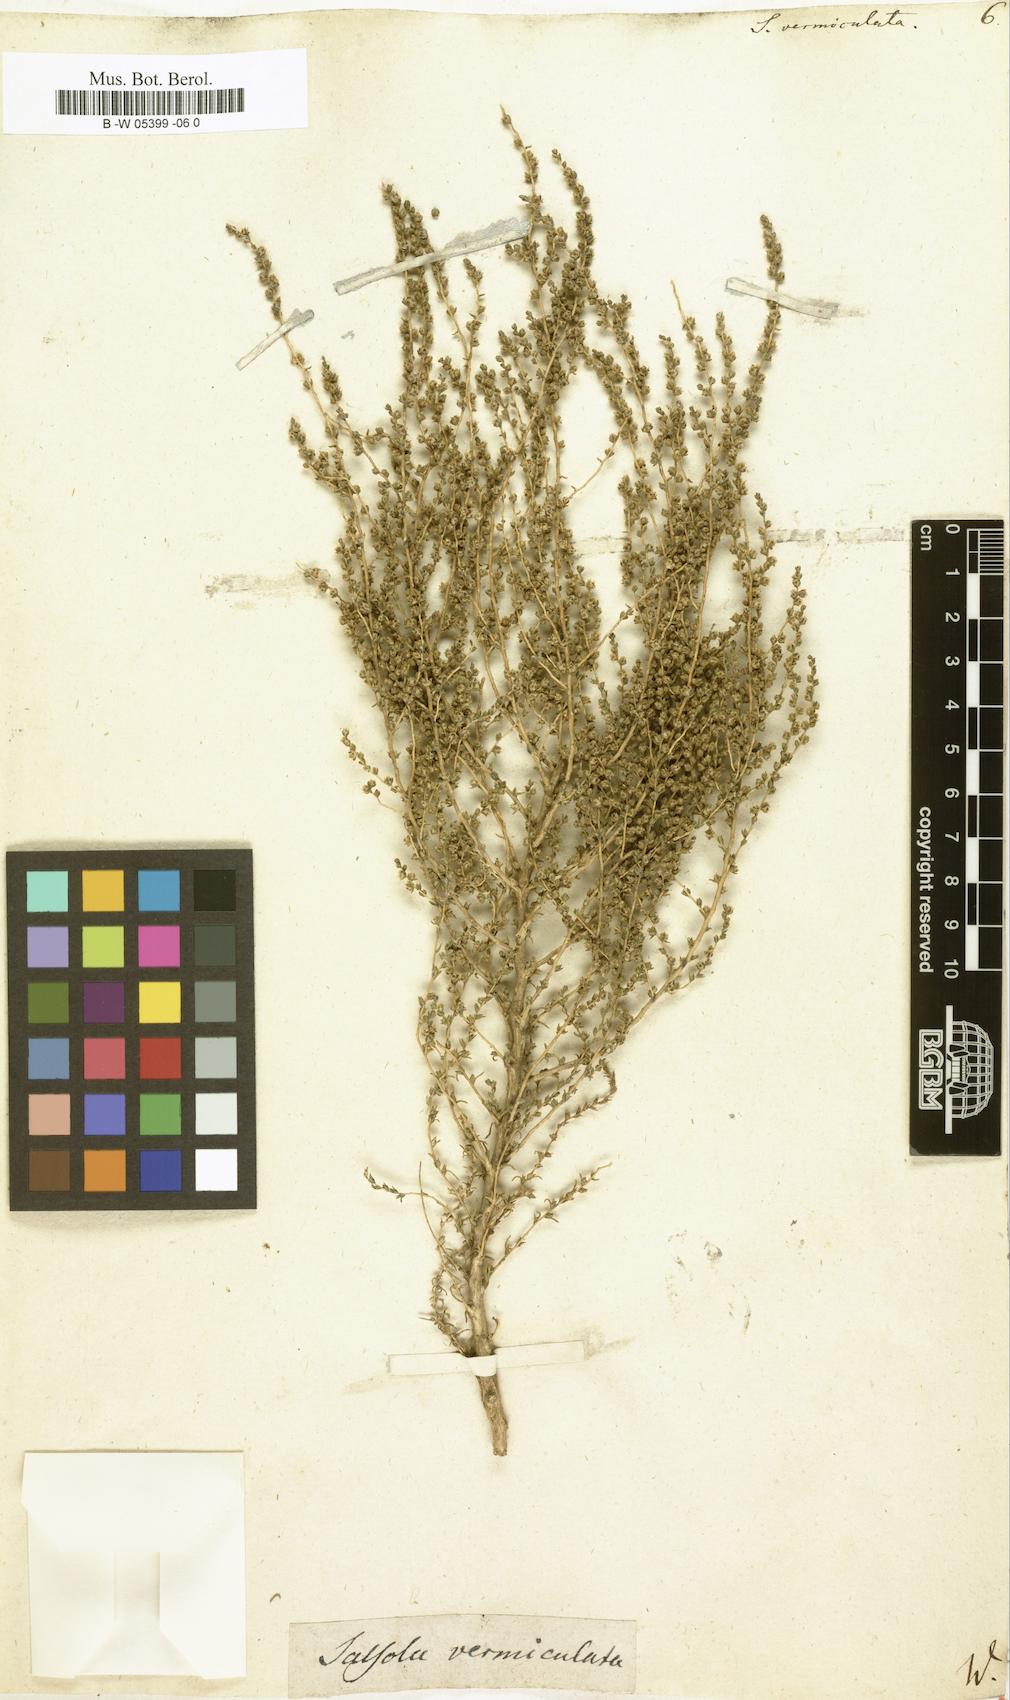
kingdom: Plantae
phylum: Tracheophyta
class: Magnoliopsida
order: Caryophyllales
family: Amaranthaceae
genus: Nitrosalsola
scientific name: Nitrosalsola vermiculata
